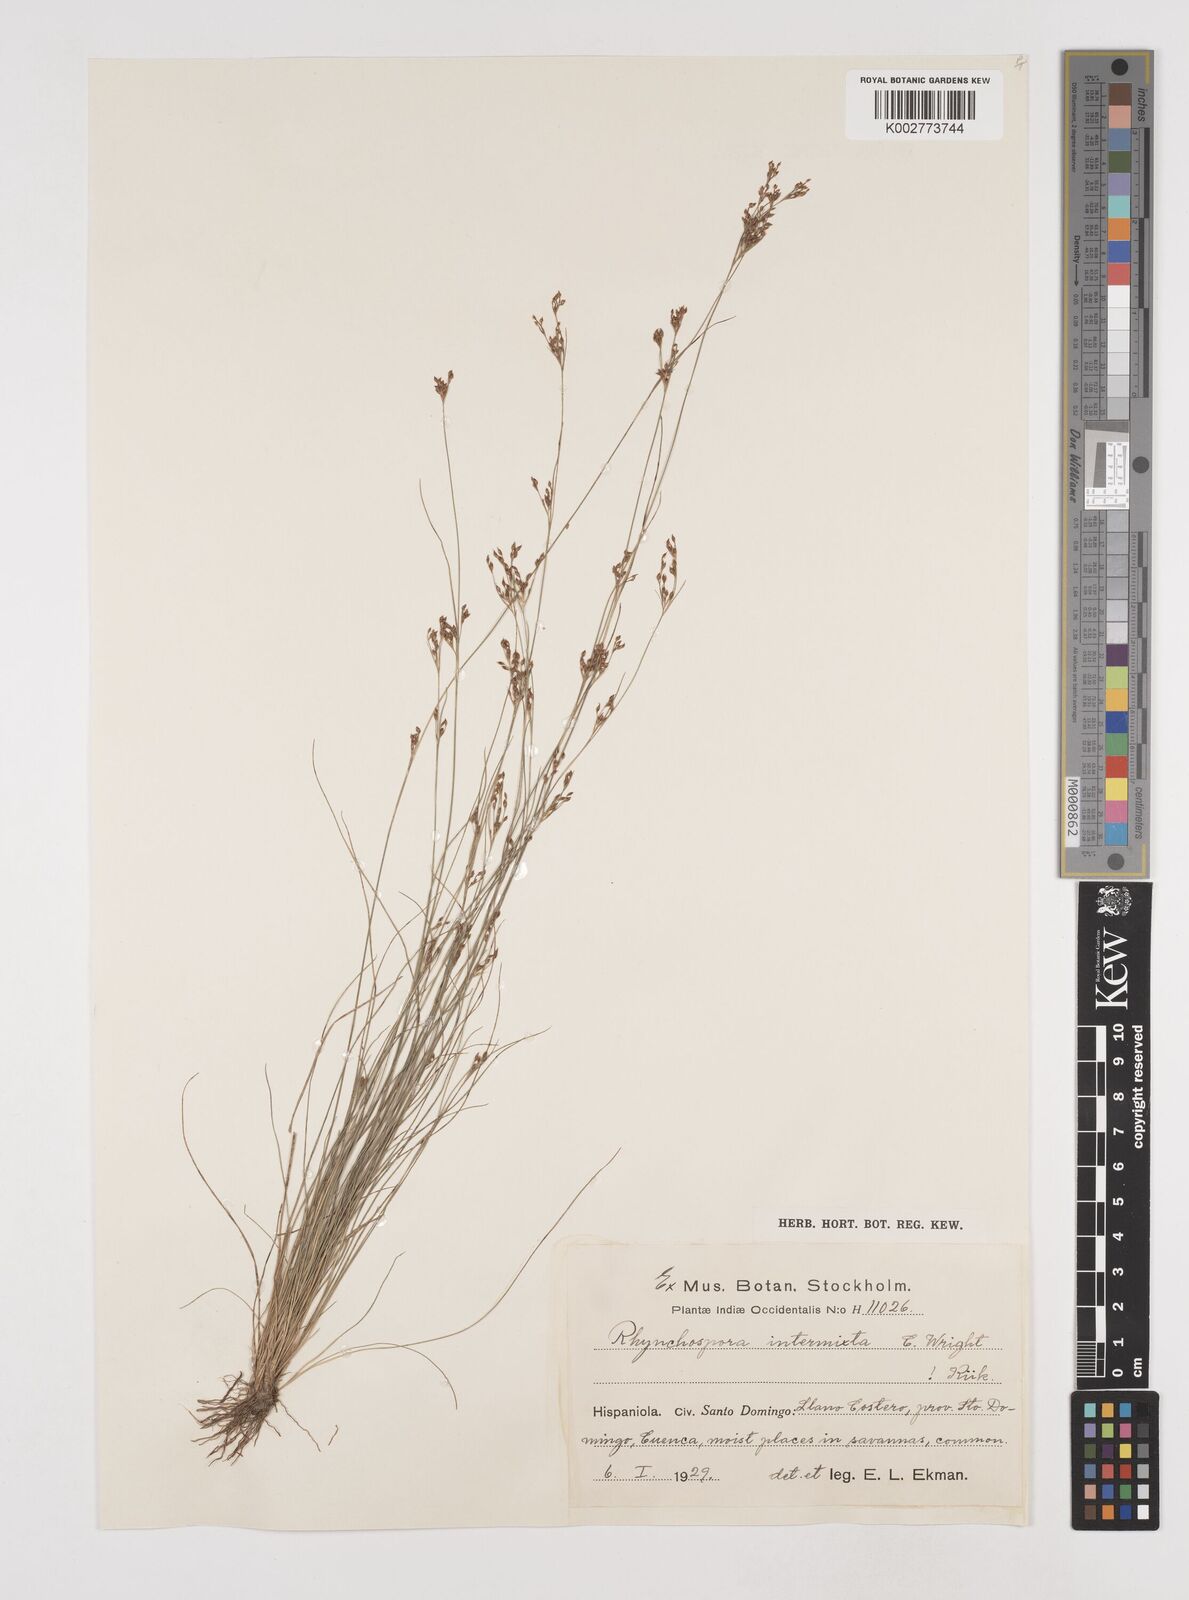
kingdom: Plantae
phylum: Tracheophyta
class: Liliopsida
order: Poales
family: Cyperaceae
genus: Rhynchospora
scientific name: Rhynchospora intermixta
